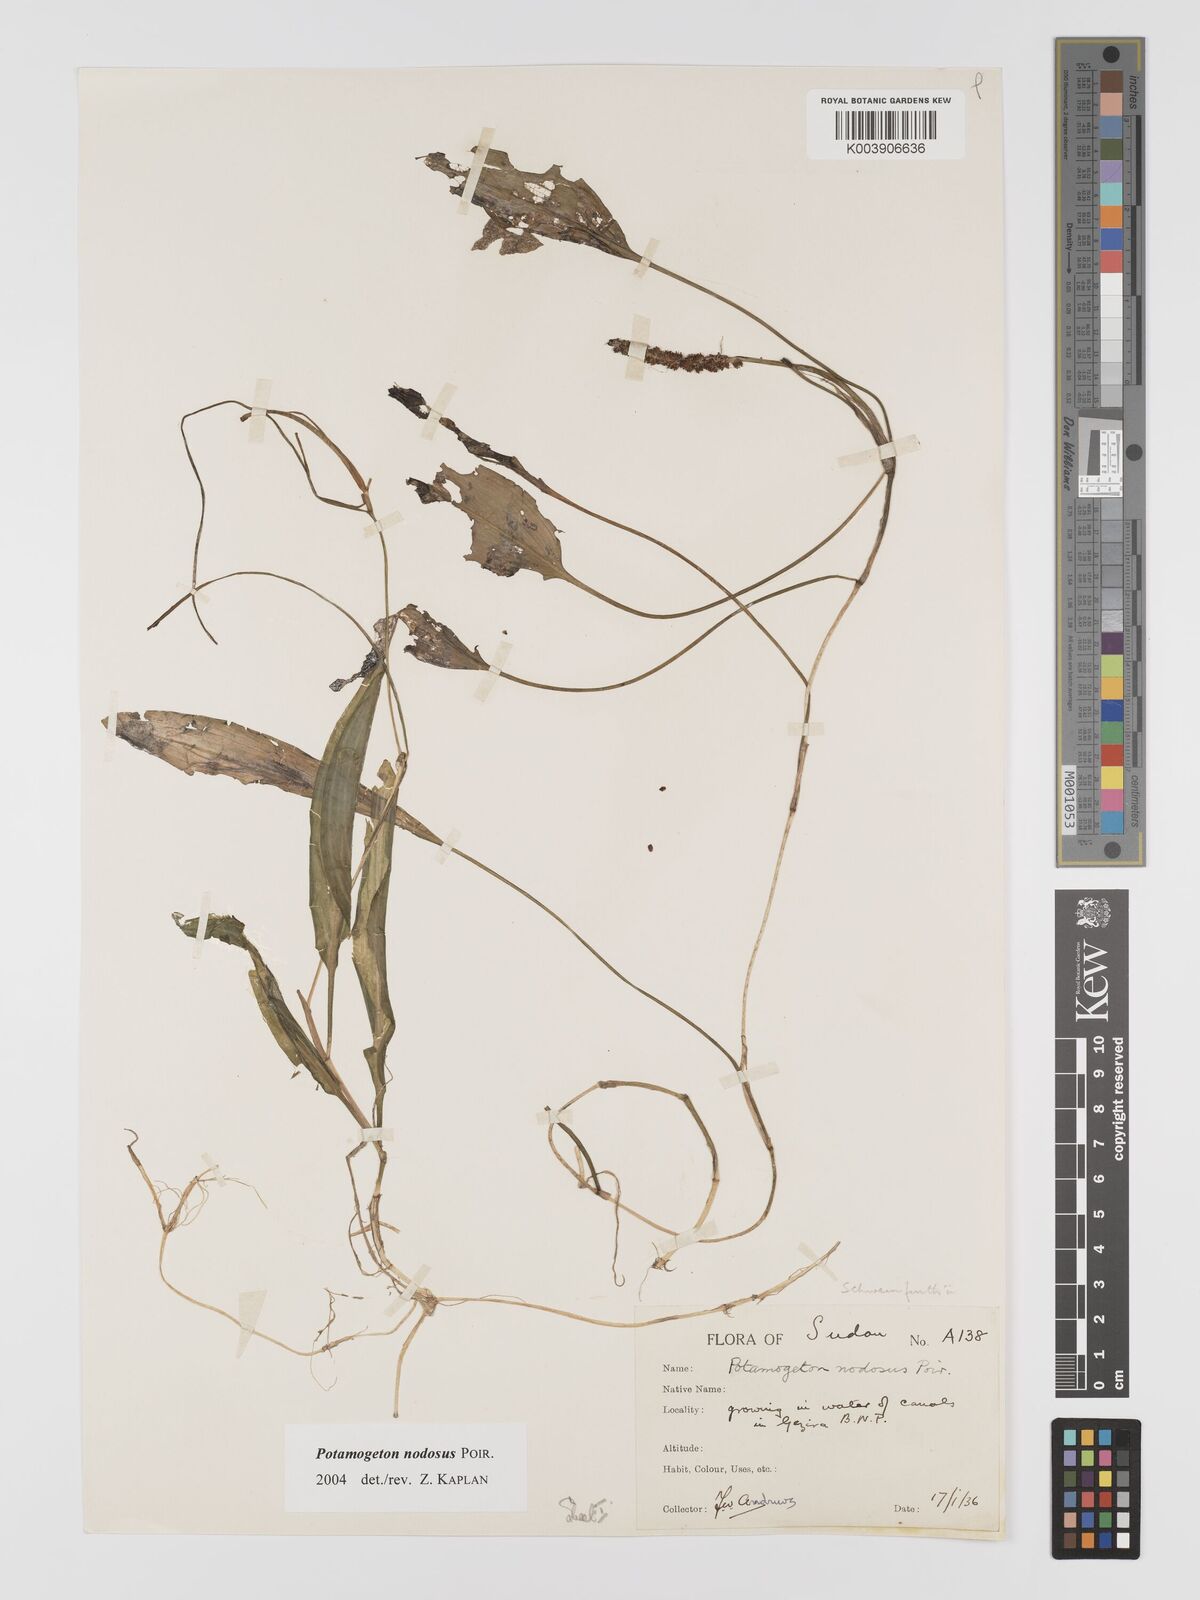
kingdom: Plantae
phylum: Tracheophyta
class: Liliopsida
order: Alismatales
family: Potamogetonaceae
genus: Potamogeton
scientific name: Potamogeton nodosus
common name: Loddon pondweed
